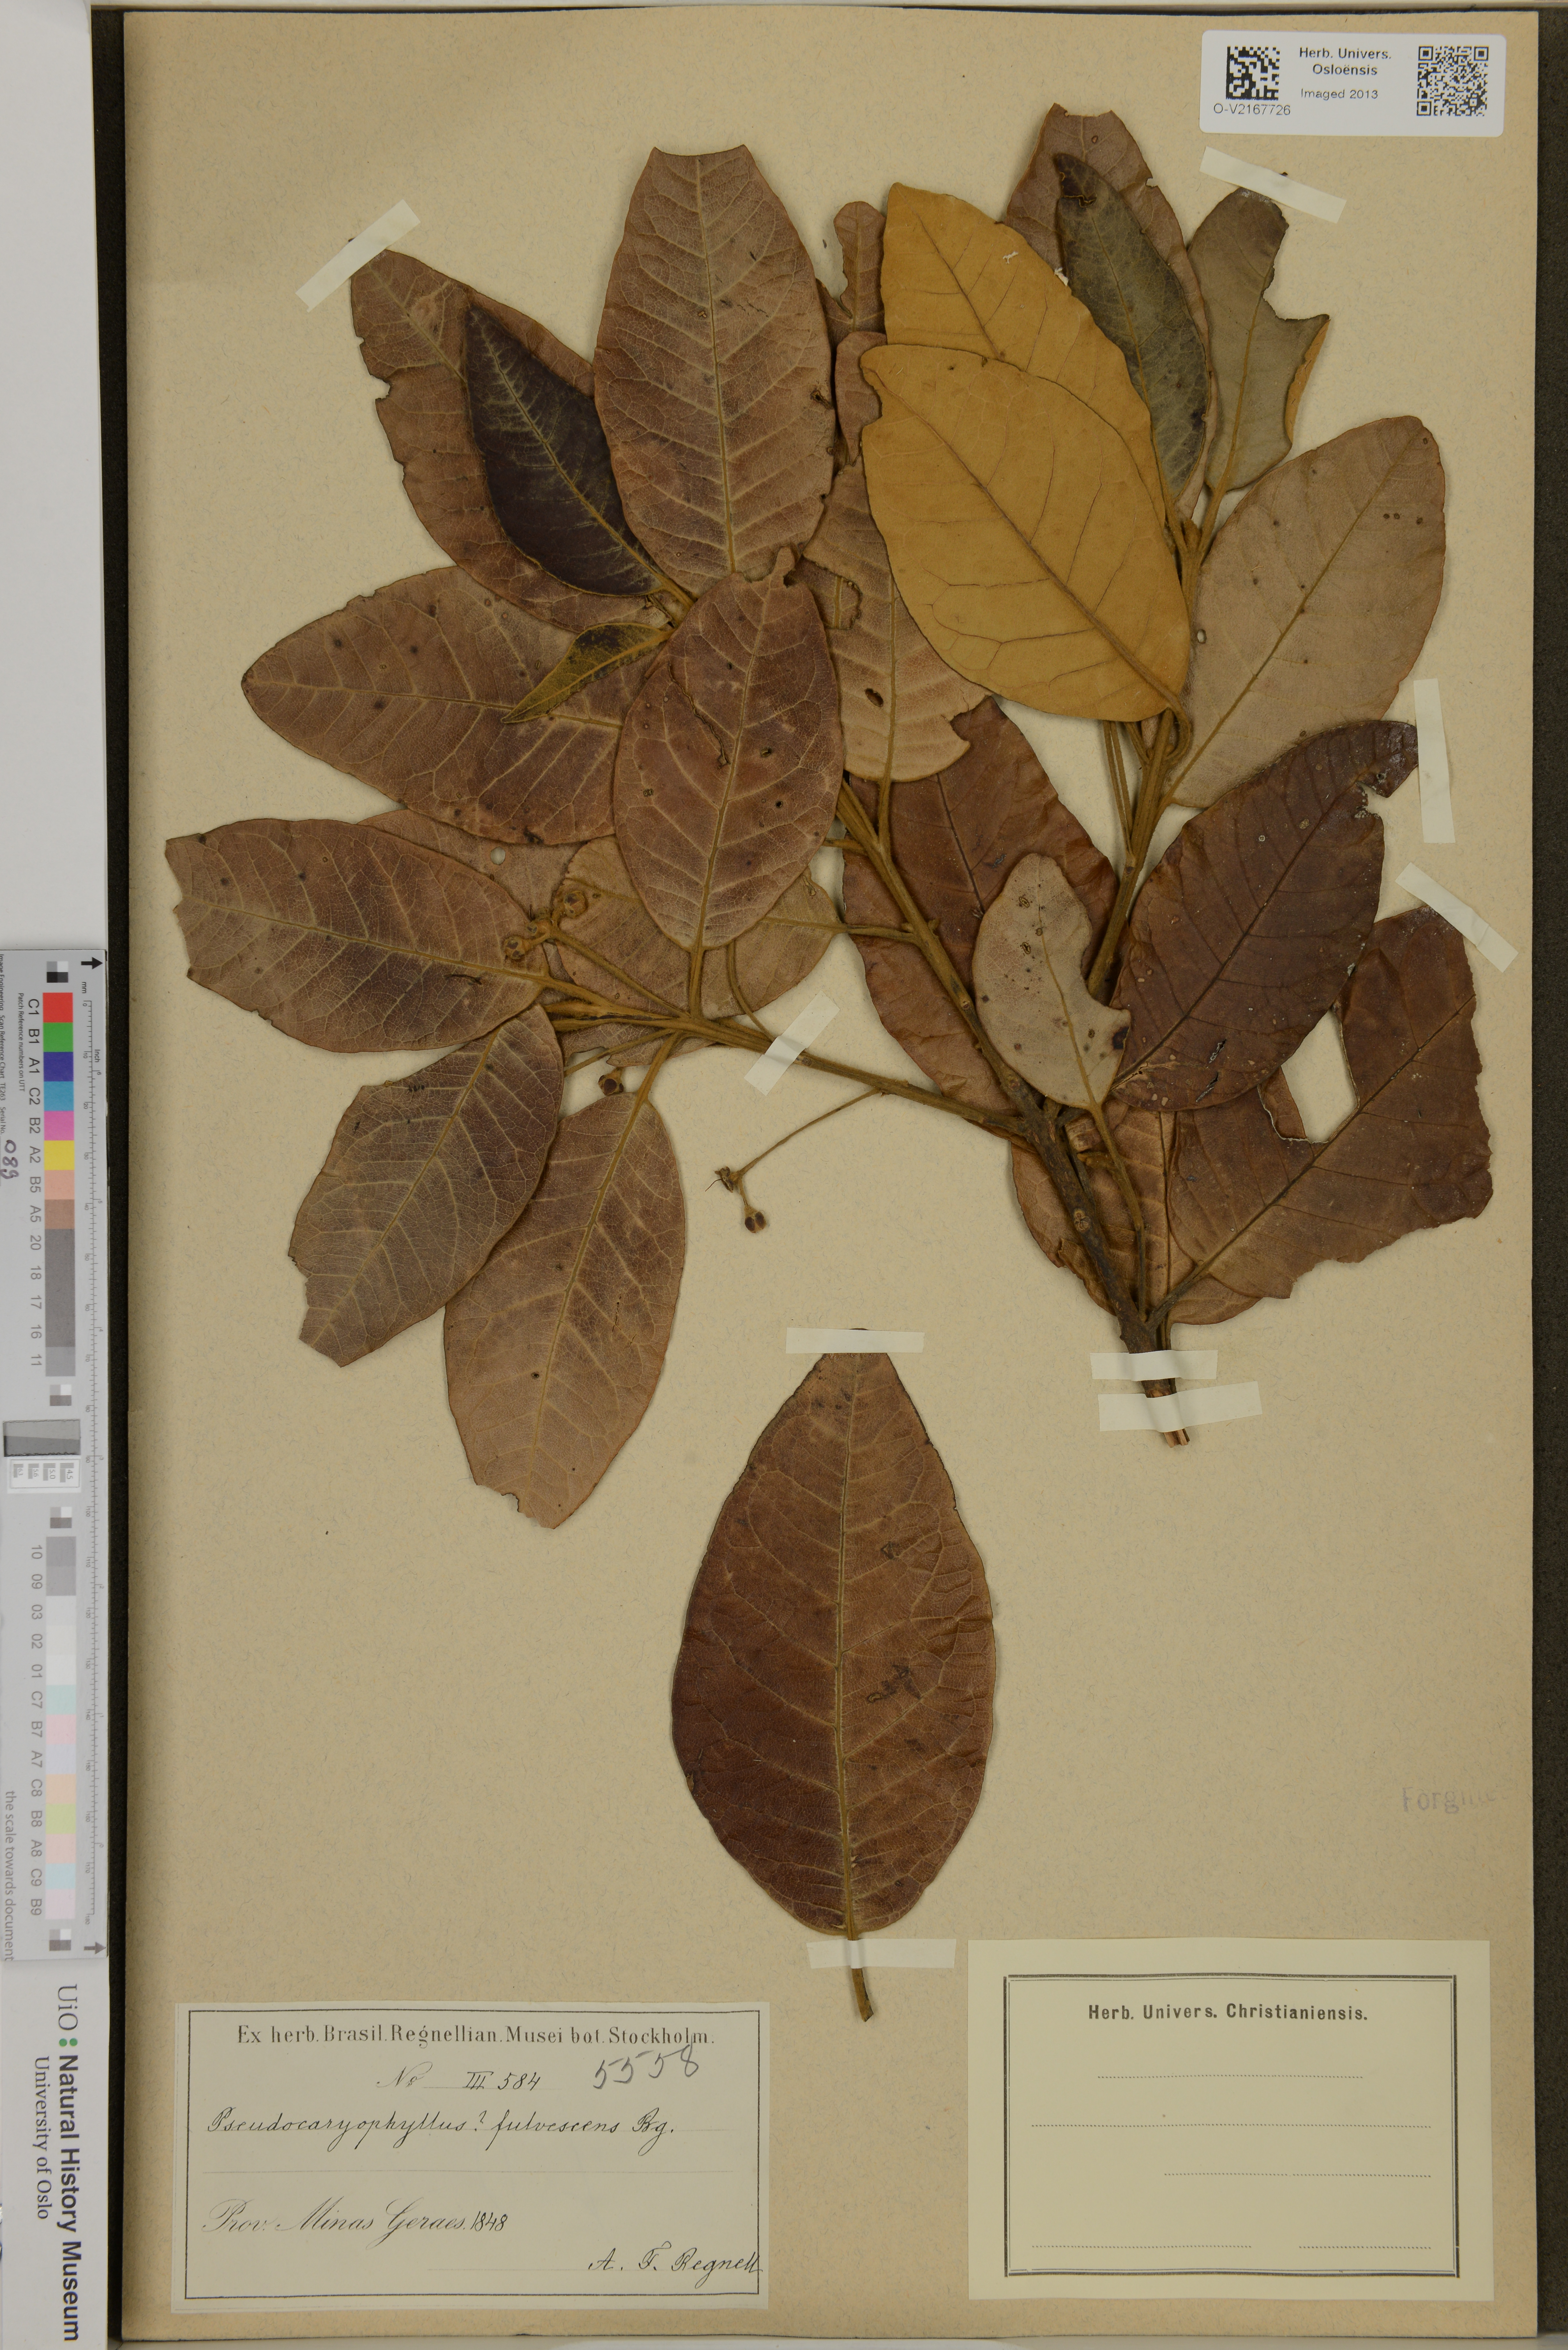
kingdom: Plantae
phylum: Tracheophyta
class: Magnoliopsida
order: Myrtales
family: Myrtaceae
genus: Pimenta
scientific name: Pimenta pseudocaryophyllus
